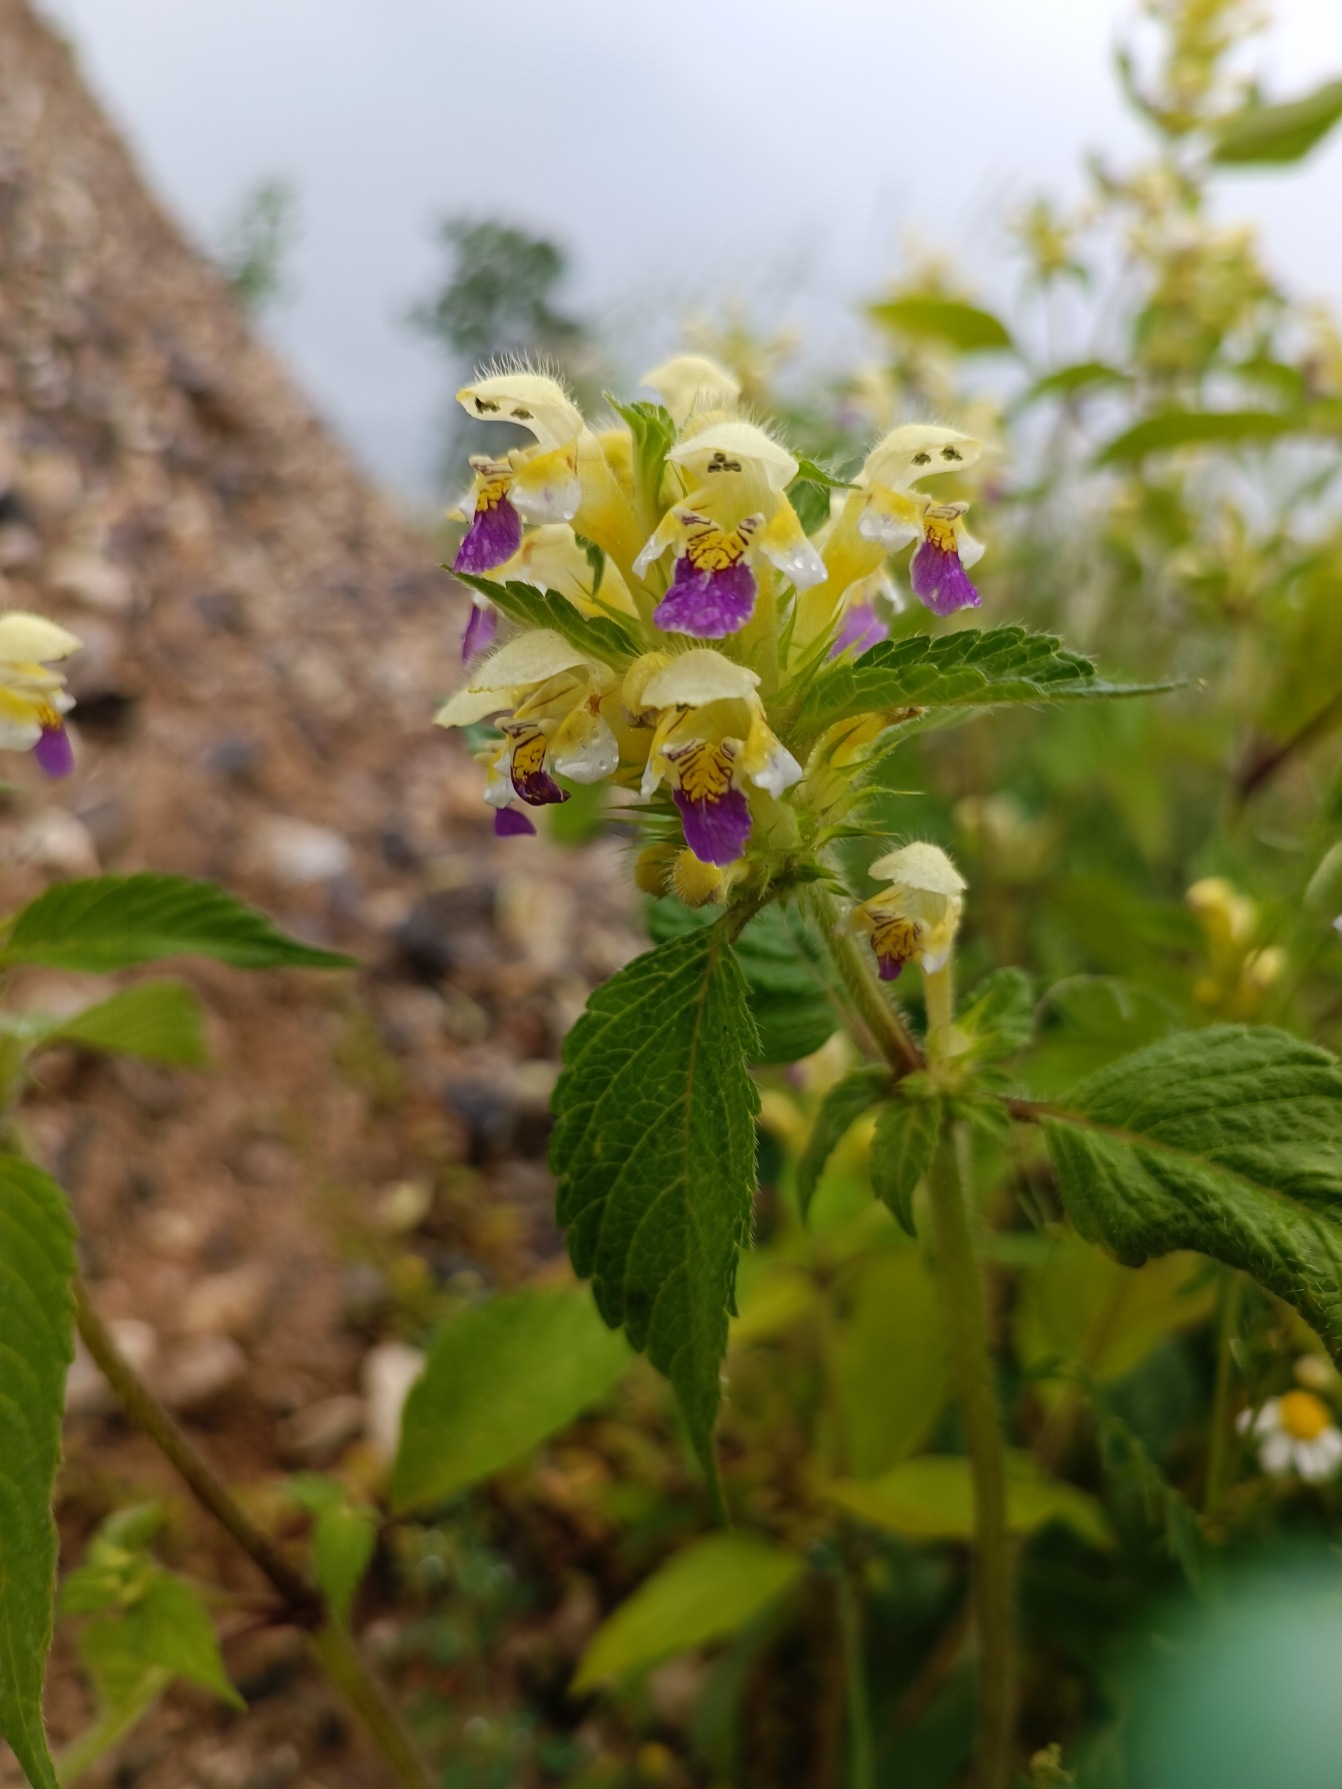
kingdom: Plantae
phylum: Tracheophyta
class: Magnoliopsida
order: Lamiales
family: Lamiaceae
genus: Galeopsis
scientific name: Galeopsis speciosa
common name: Hamp-hanekro
